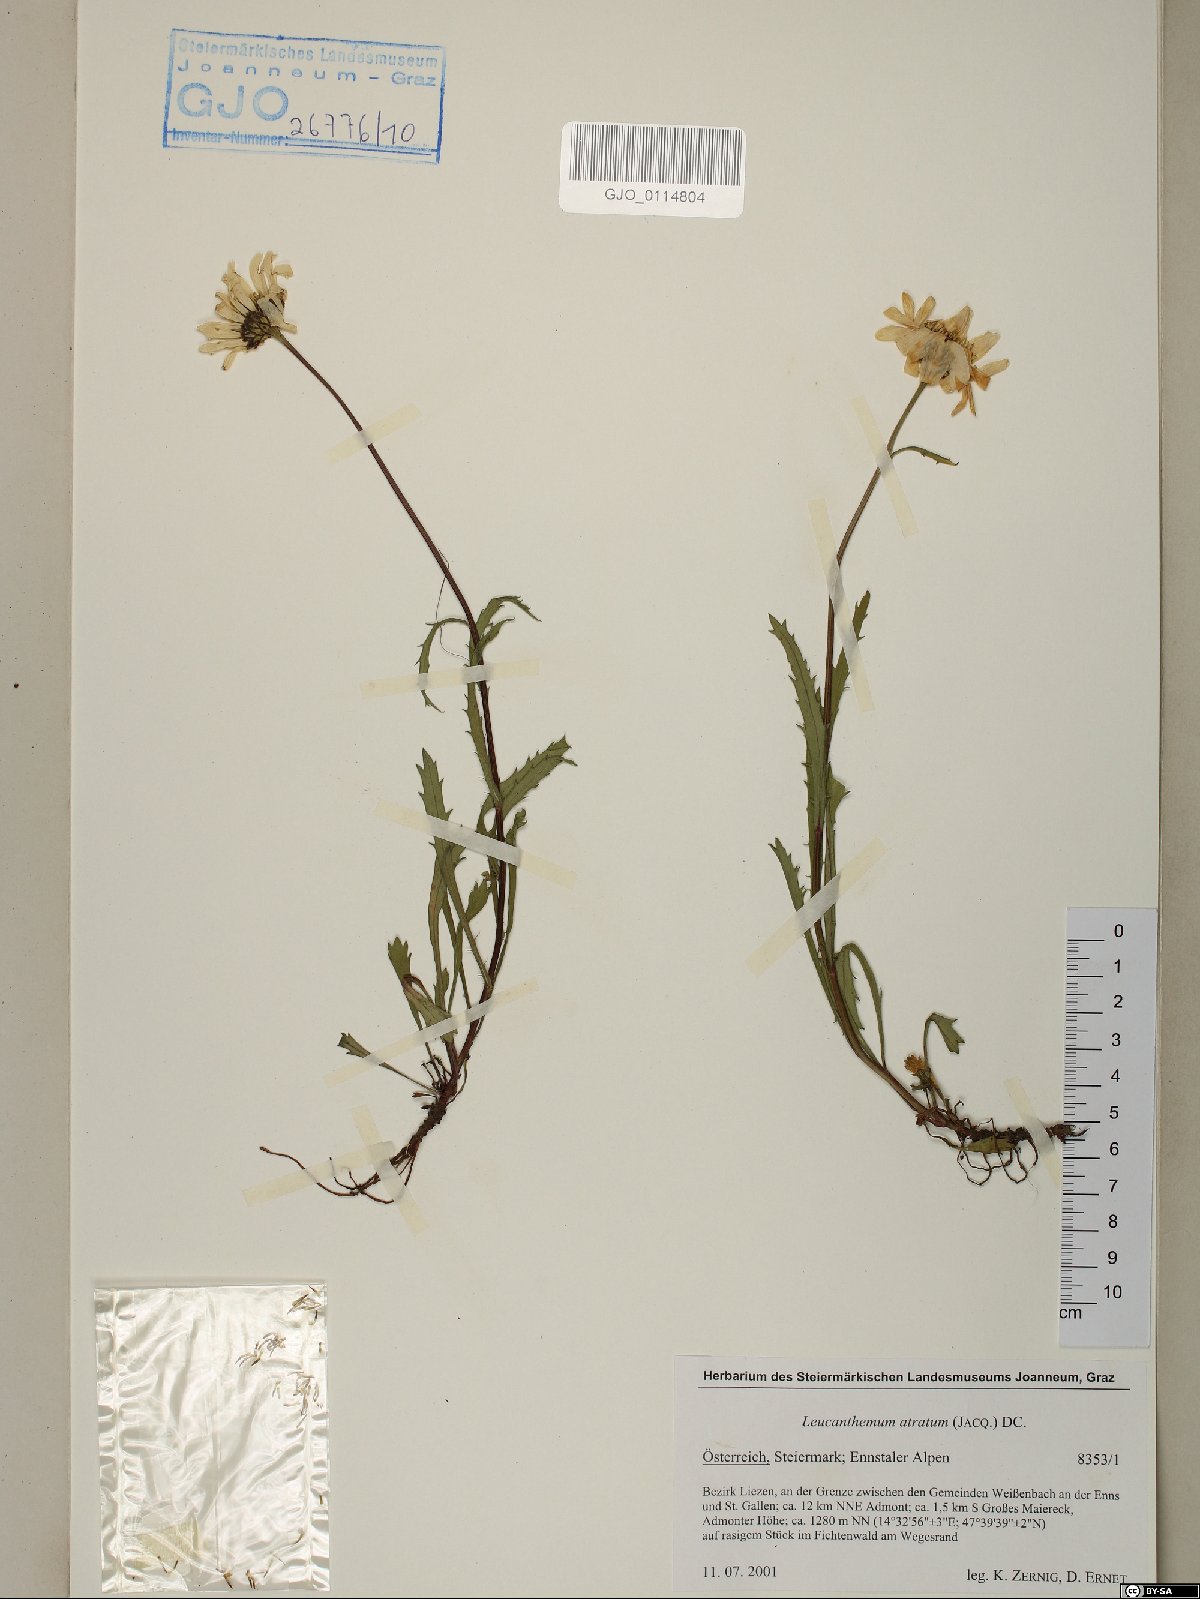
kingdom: Plantae
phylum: Tracheophyta
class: Magnoliopsida
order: Asterales
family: Asteraceae
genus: Leucanthemum
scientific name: Leucanthemum atratum
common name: Saw-leaved moon-daisy
